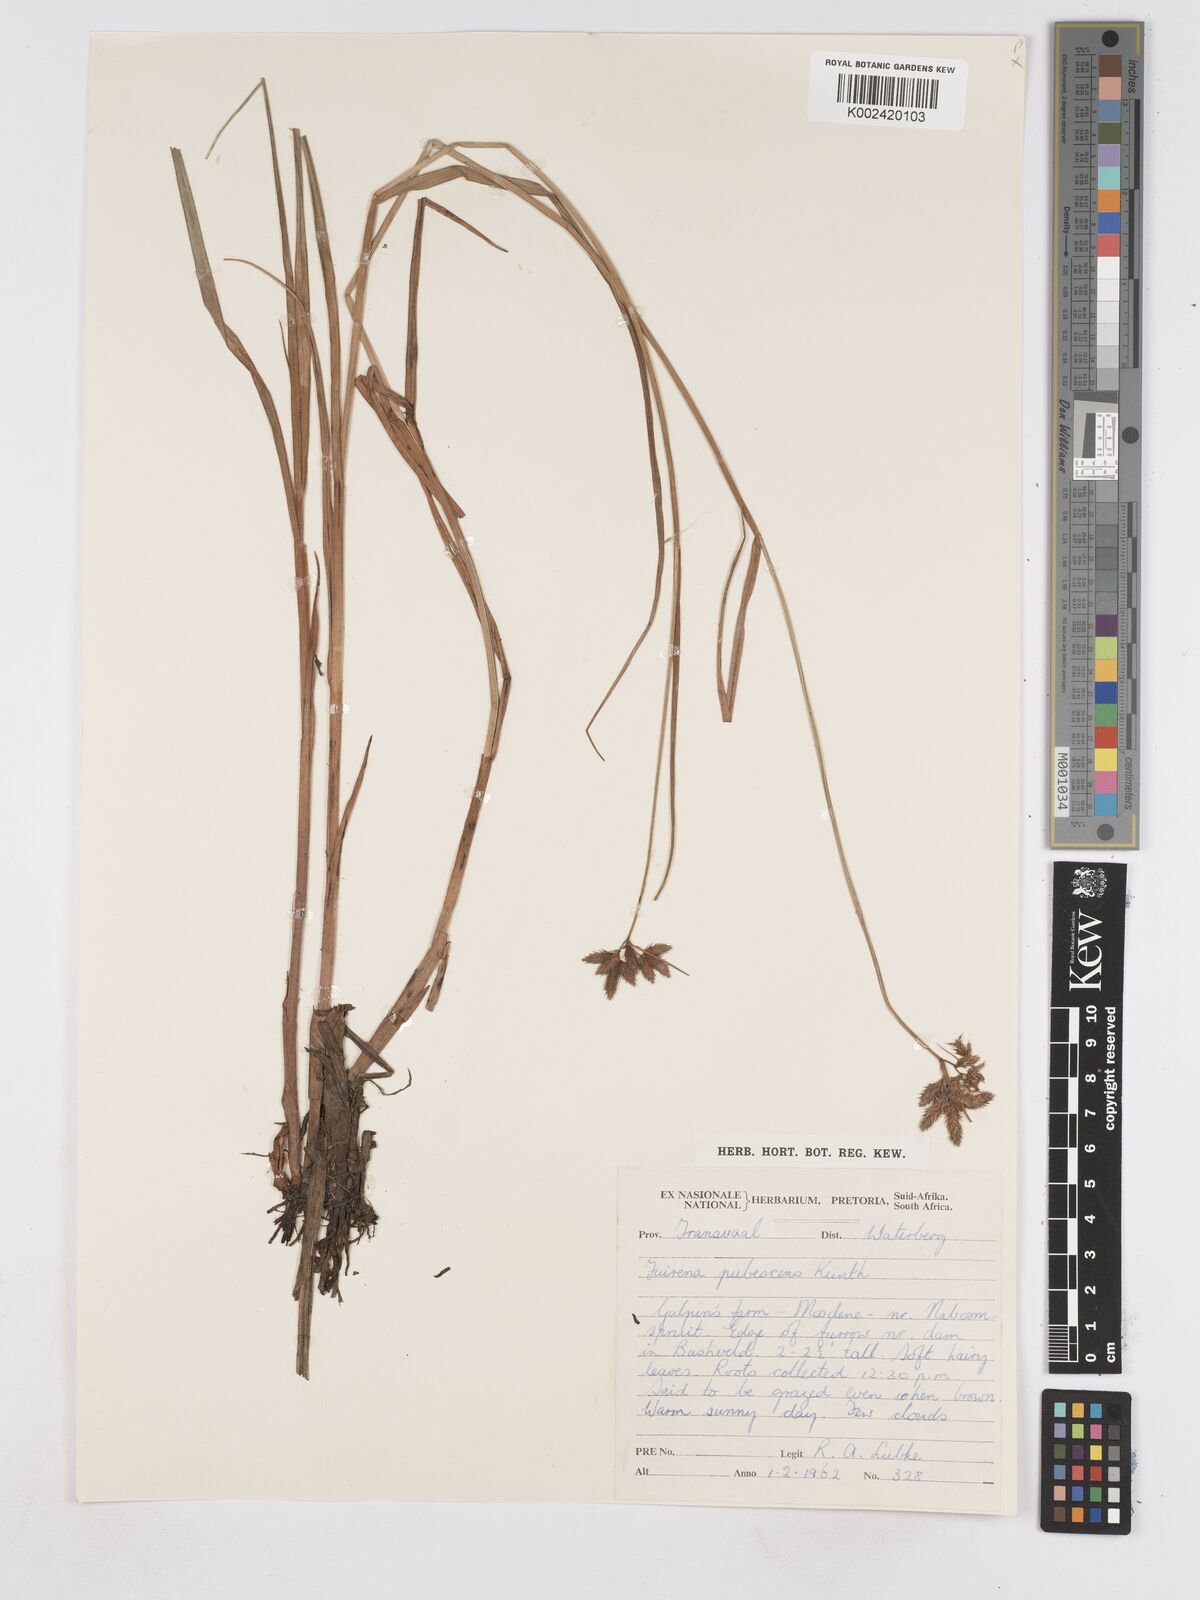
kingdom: Plantae
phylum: Tracheophyta
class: Liliopsida
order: Poales
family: Cyperaceae
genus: Fuirena
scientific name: Fuirena pubescens
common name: Hairy sedge
